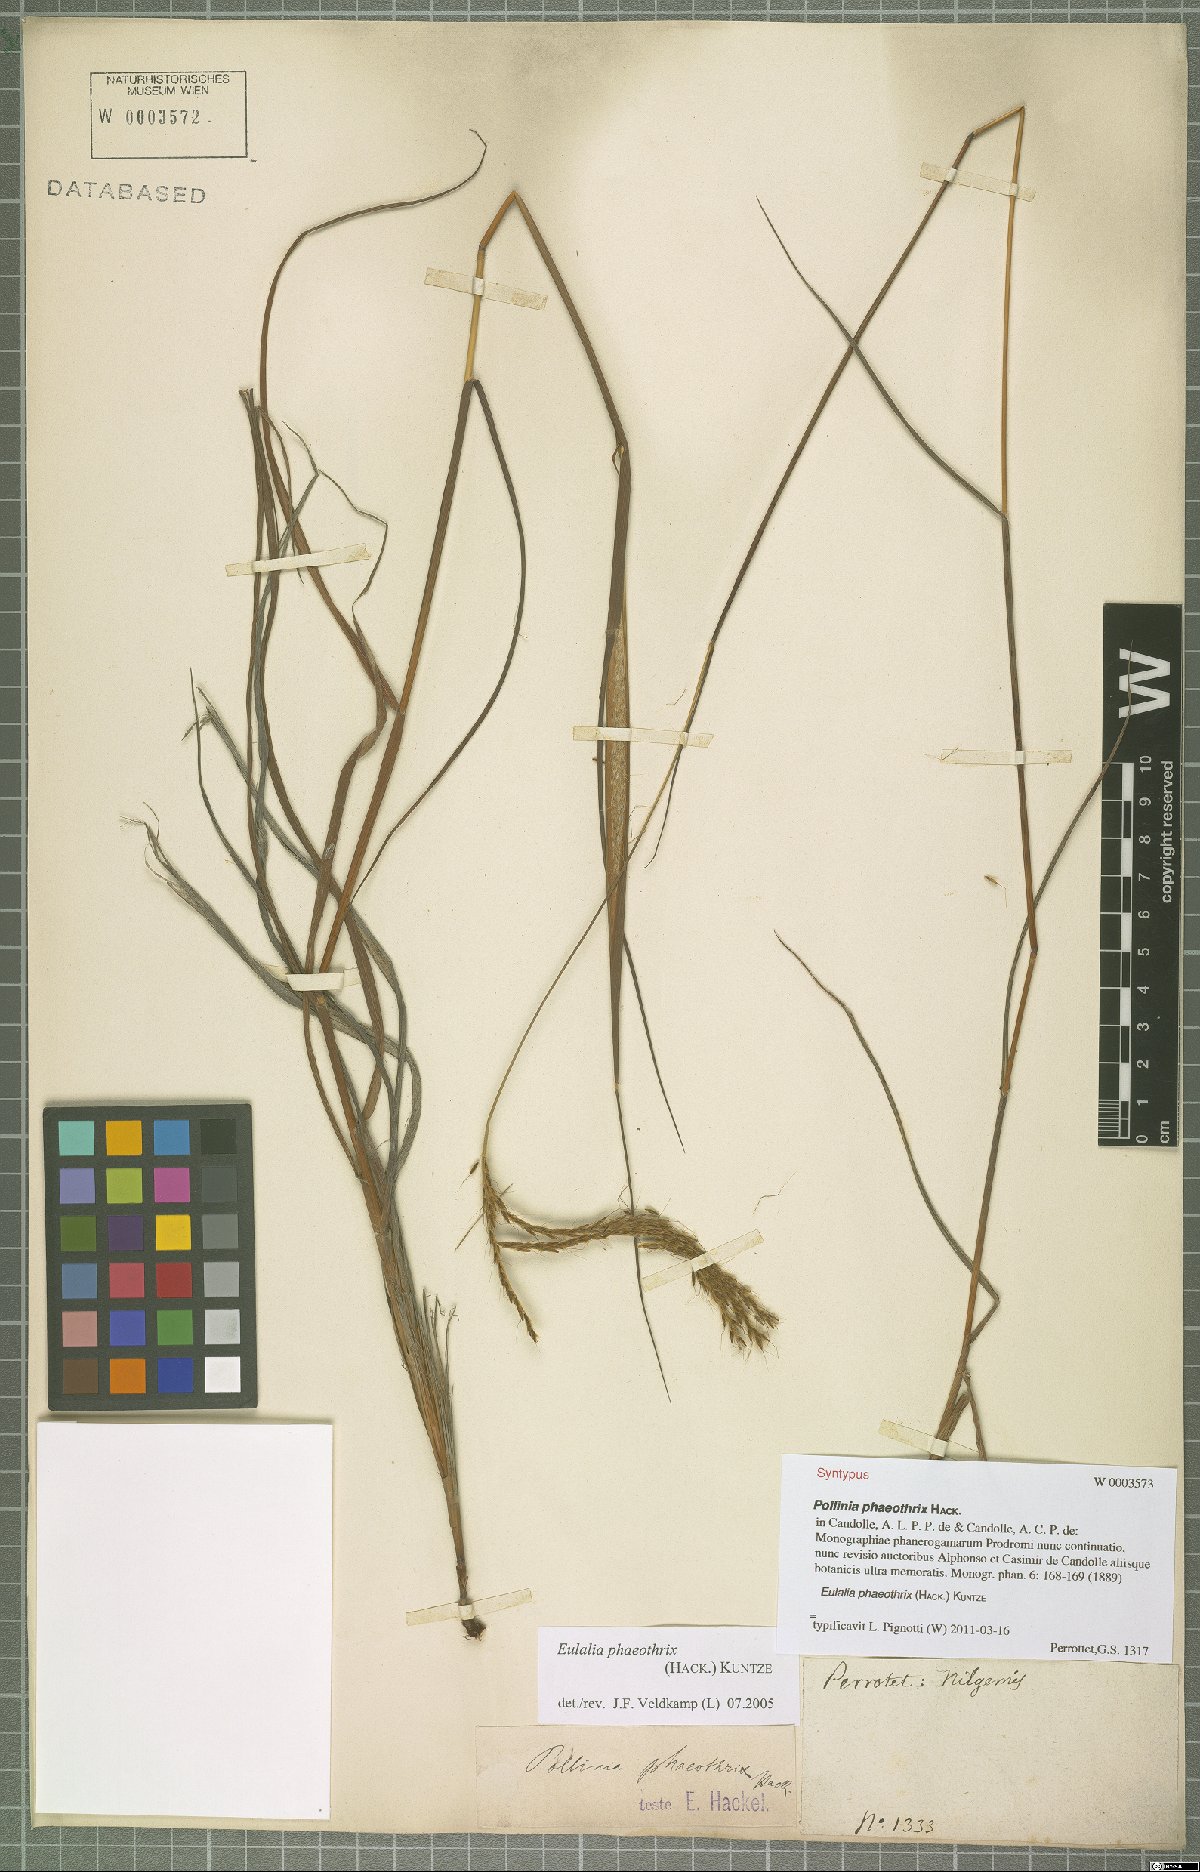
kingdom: Plantae
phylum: Tracheophyta
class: Liliopsida
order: Poales
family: Poaceae
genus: Eulalia
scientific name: Eulalia phaeothrix
